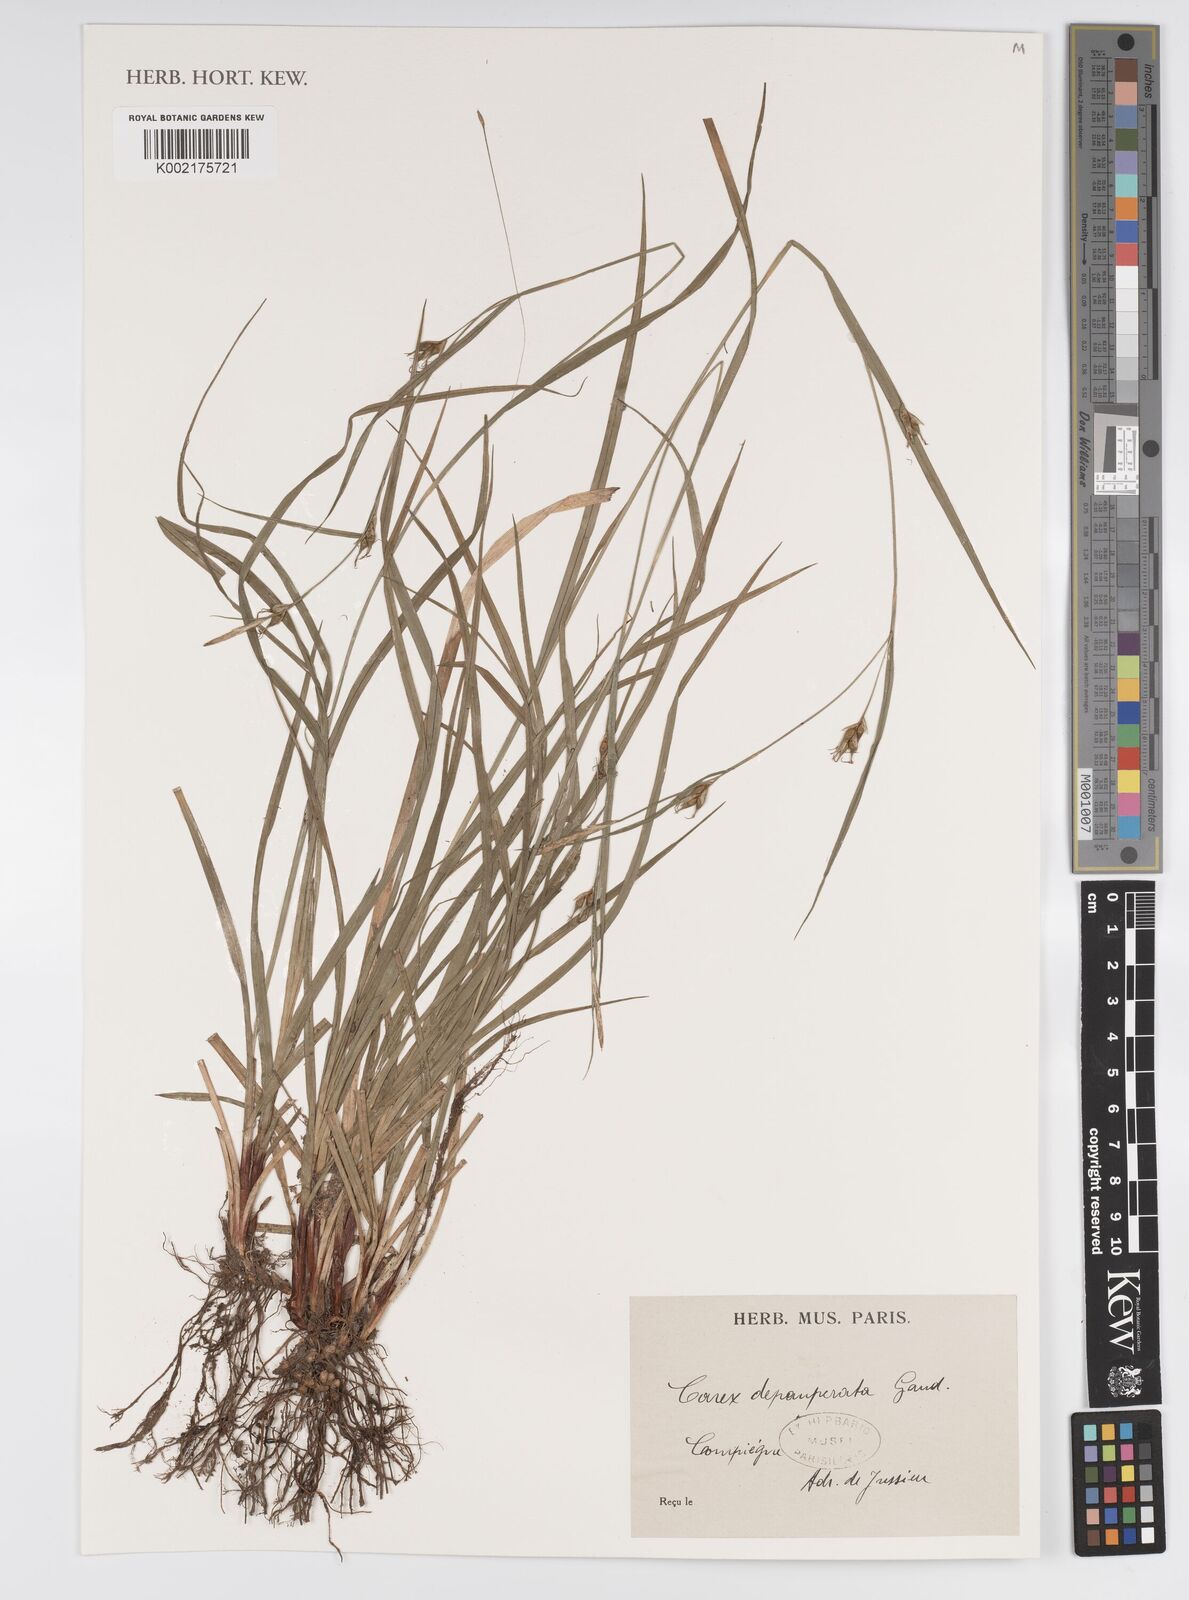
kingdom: Plantae
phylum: Tracheophyta
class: Liliopsida
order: Poales
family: Cyperaceae
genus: Carex
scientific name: Carex
